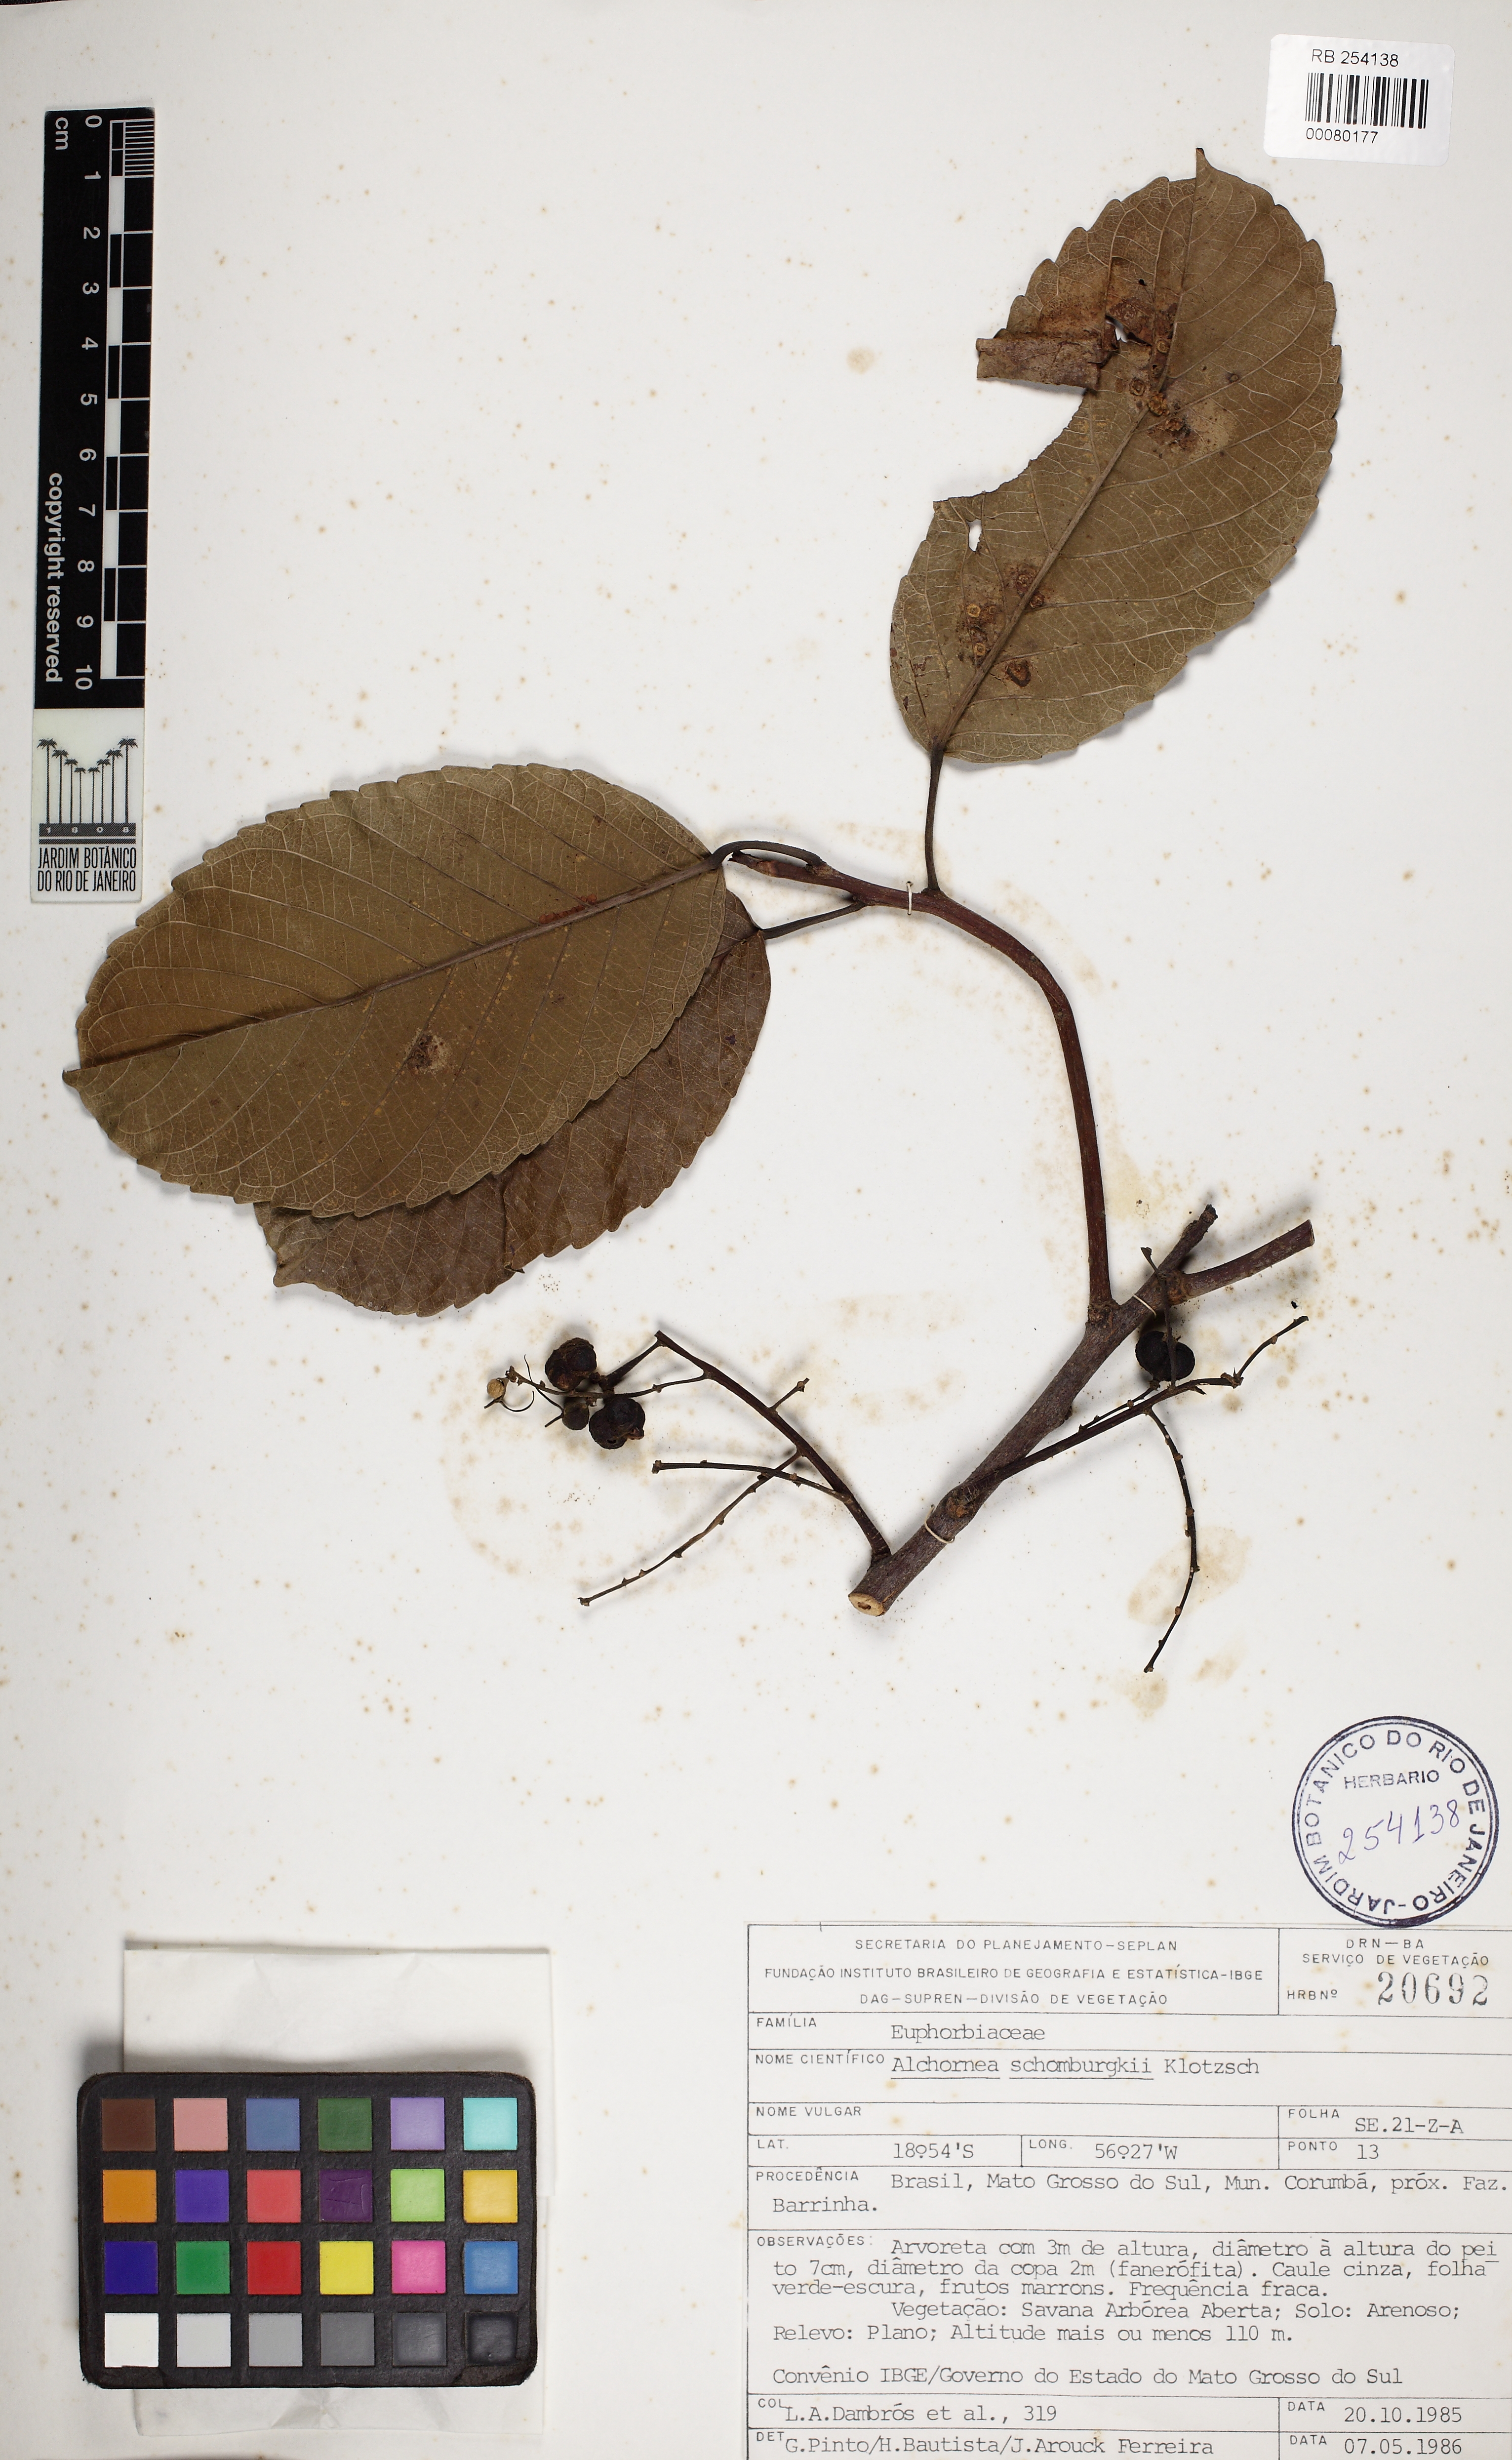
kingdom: Plantae
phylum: Tracheophyta
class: Magnoliopsida
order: Malpighiales
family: Euphorbiaceae
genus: Alchornea
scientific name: Alchornea discolor
